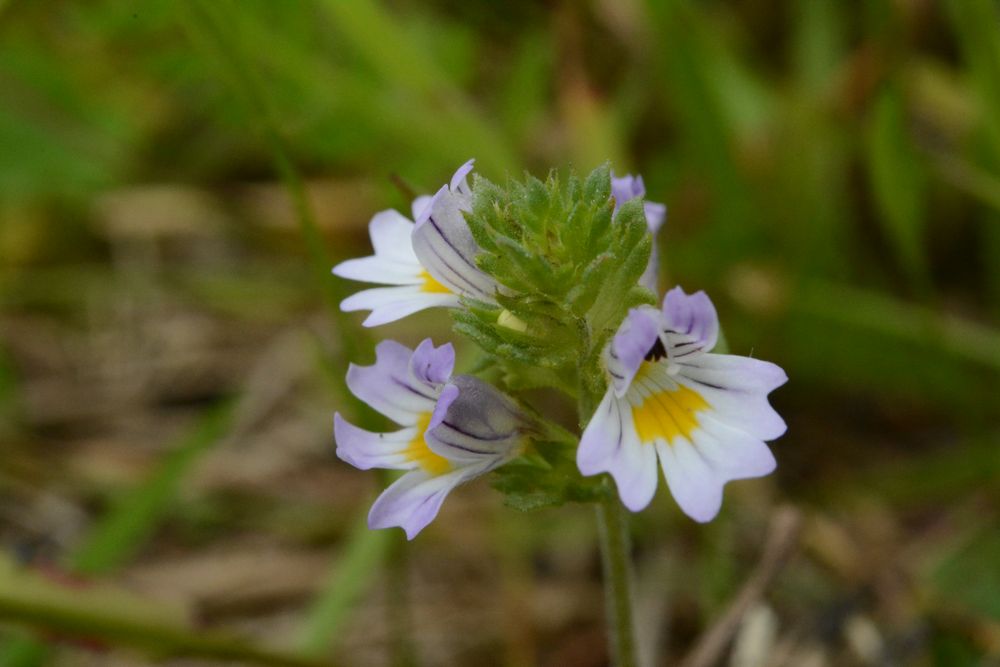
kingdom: Plantae
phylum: Tracheophyta
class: Magnoliopsida
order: Lamiales
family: Orobanchaceae
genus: Euphrasia
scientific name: Euphrasia frigida
